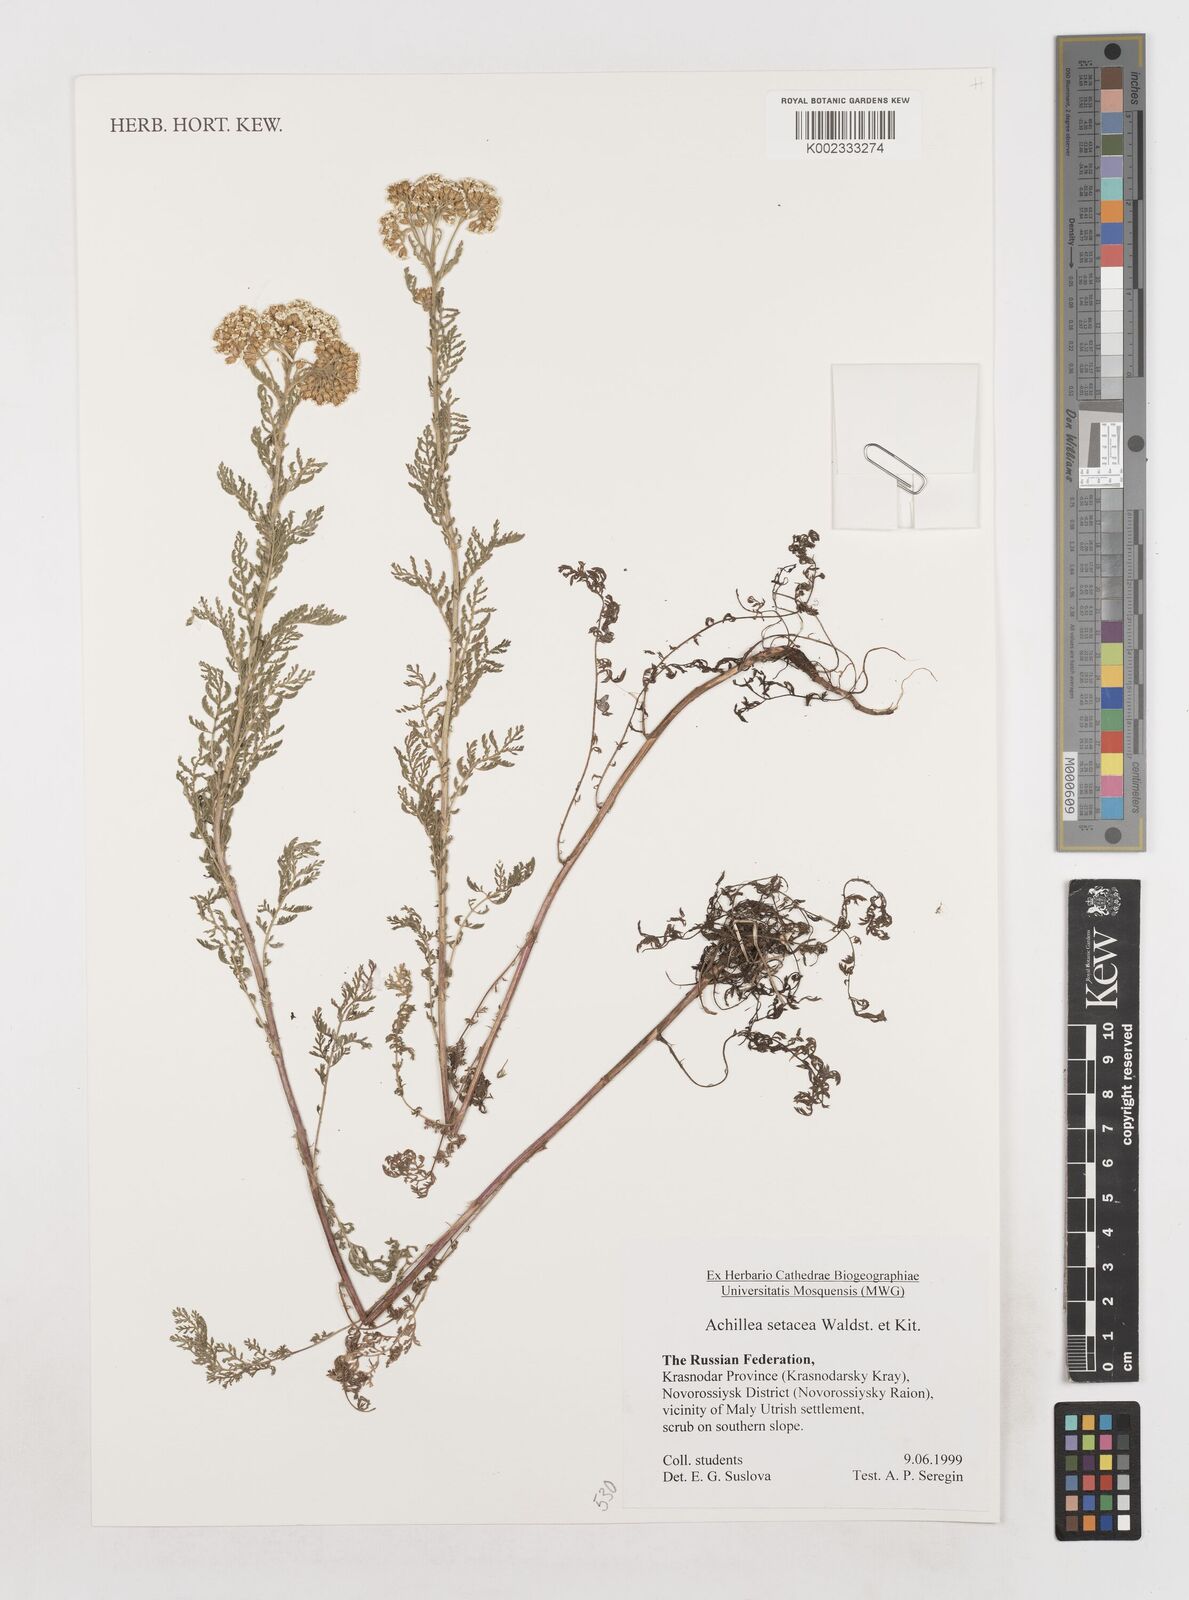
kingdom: Plantae
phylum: Tracheophyta
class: Magnoliopsida
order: Asterales
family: Asteraceae
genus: Achillea
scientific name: Achillea setacea
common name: Bristly yarrow
